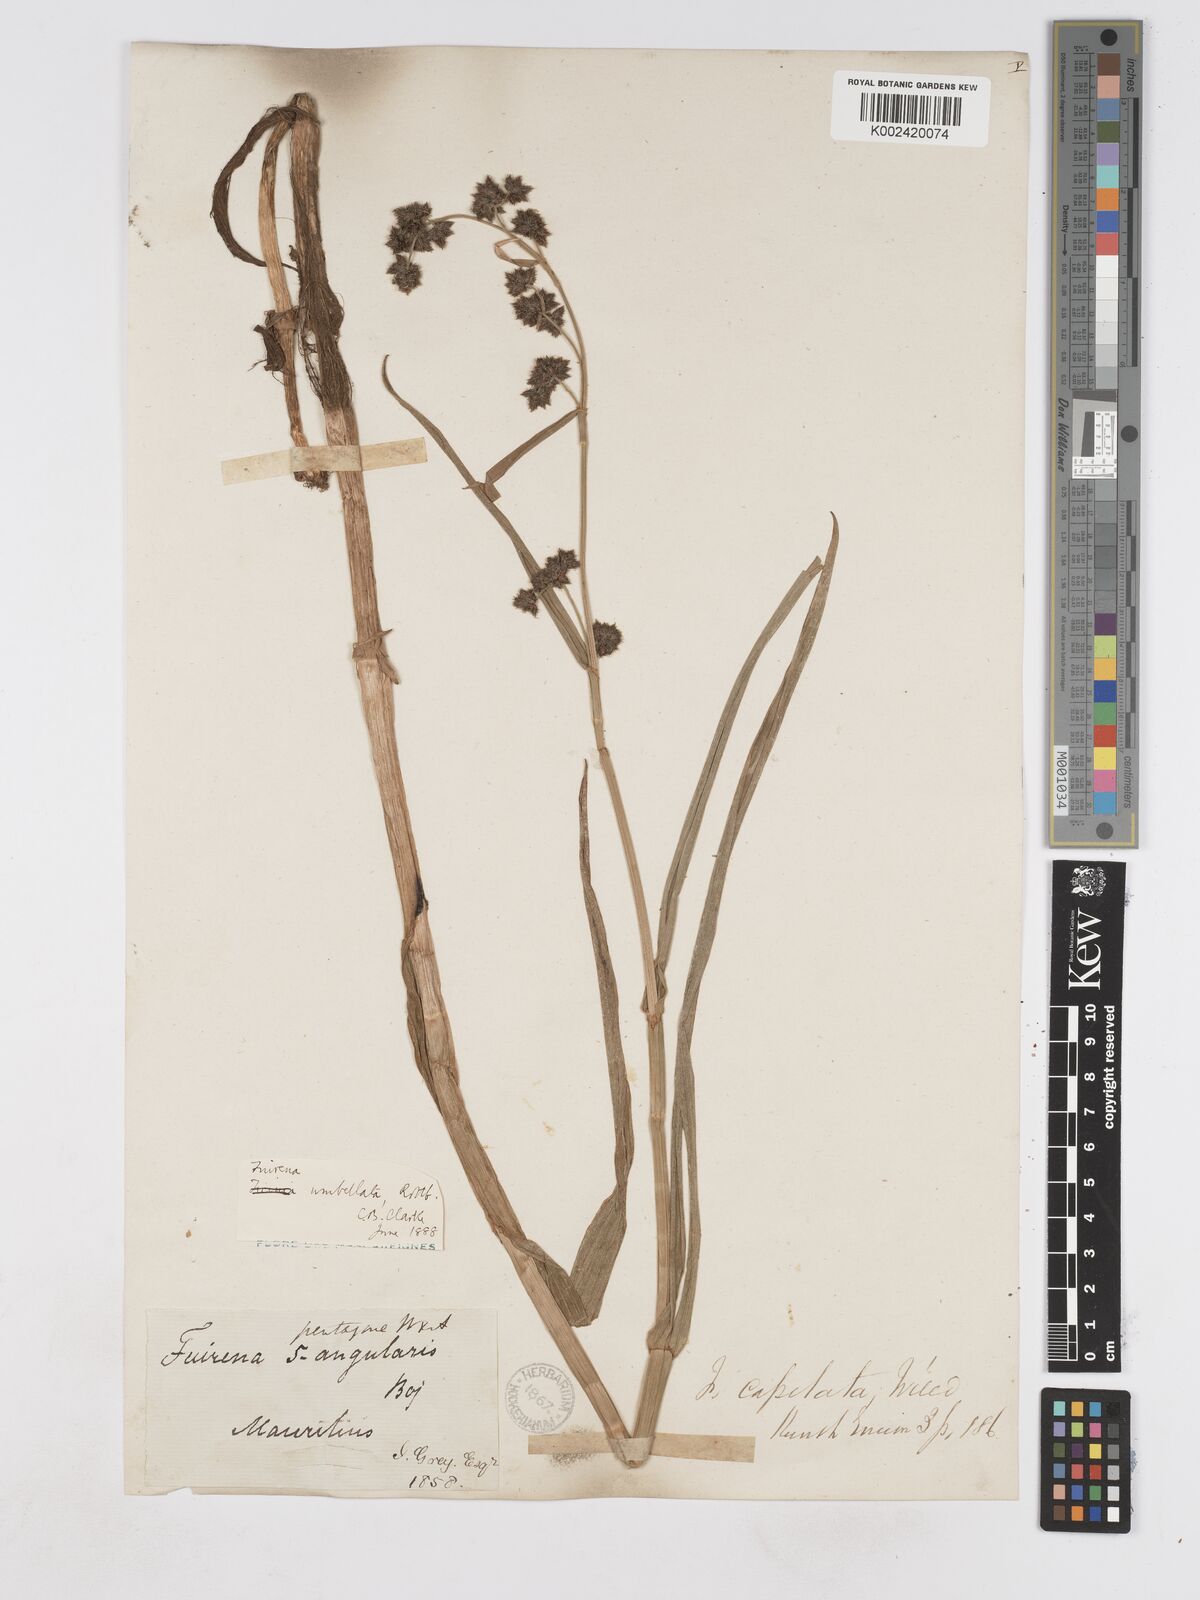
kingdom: Plantae
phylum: Tracheophyta
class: Liliopsida
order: Poales
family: Cyperaceae
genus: Fuirena
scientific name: Fuirena umbellata
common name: Yefen
